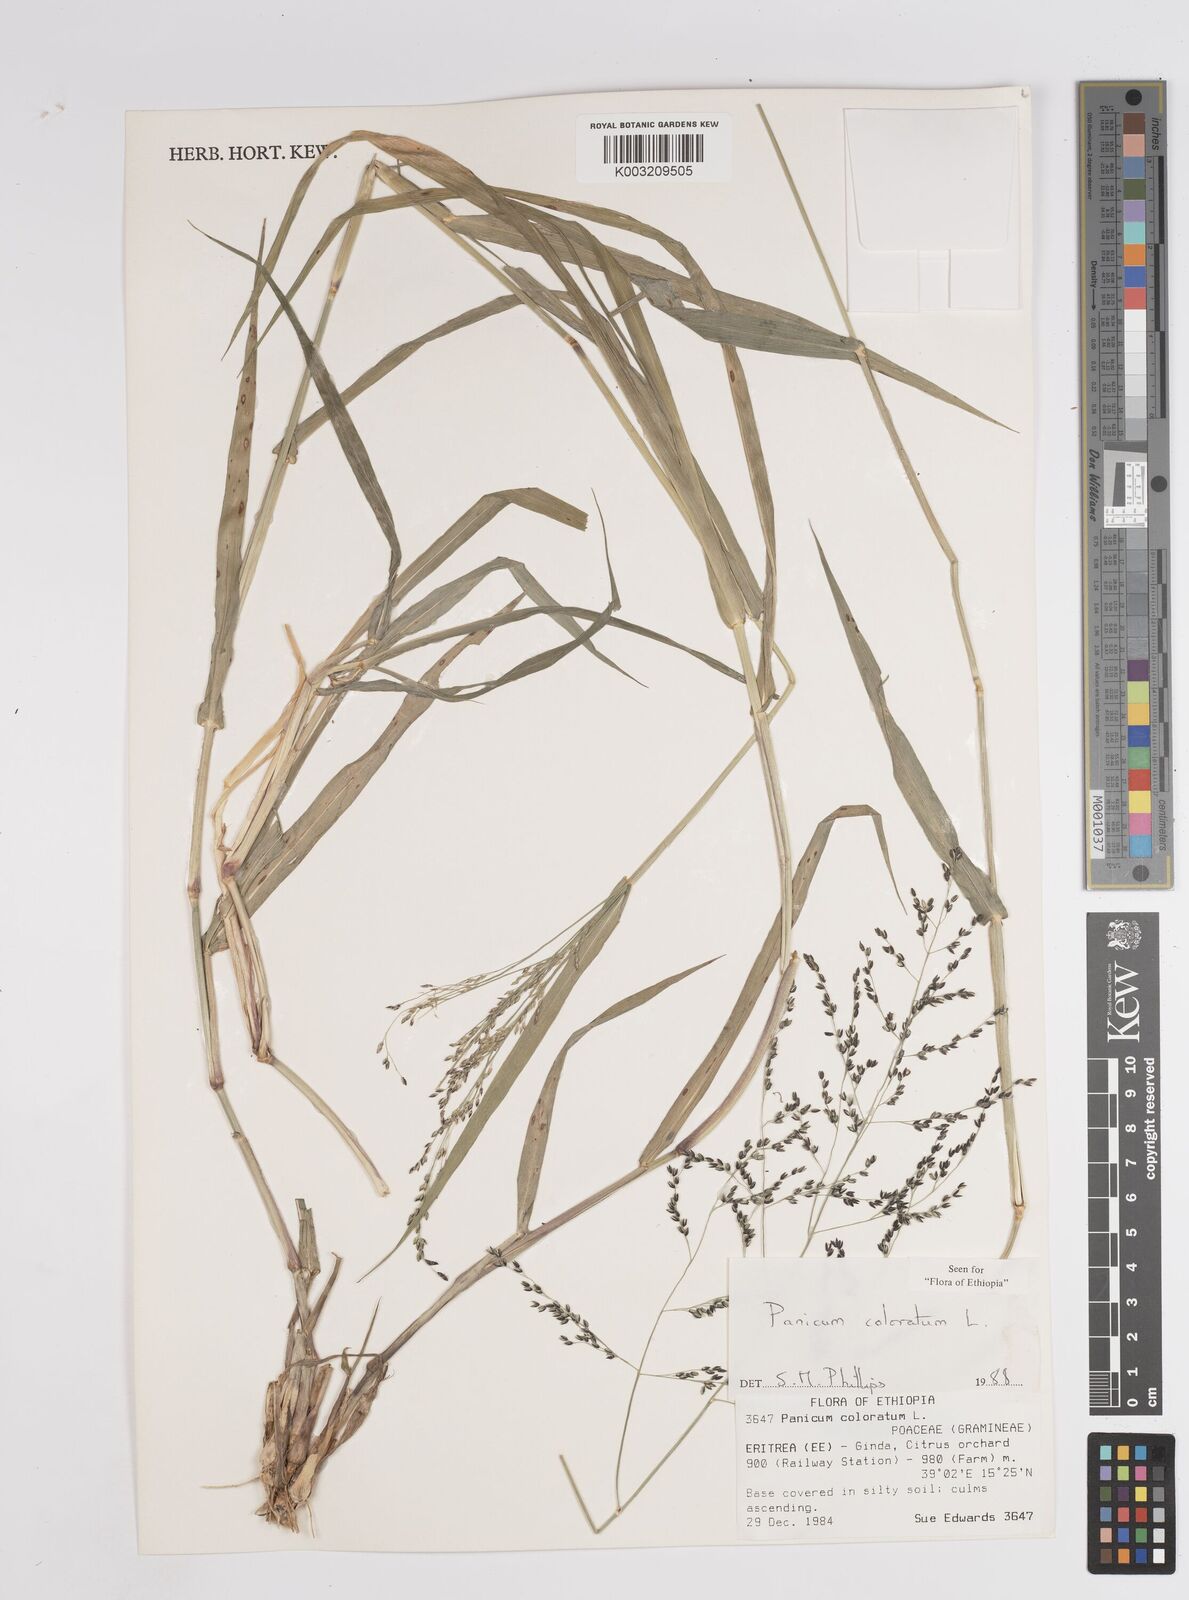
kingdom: Plantae
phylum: Tracheophyta
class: Liliopsida
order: Poales
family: Poaceae
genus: Panicum
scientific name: Panicum coloratum
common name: Kleingrass
